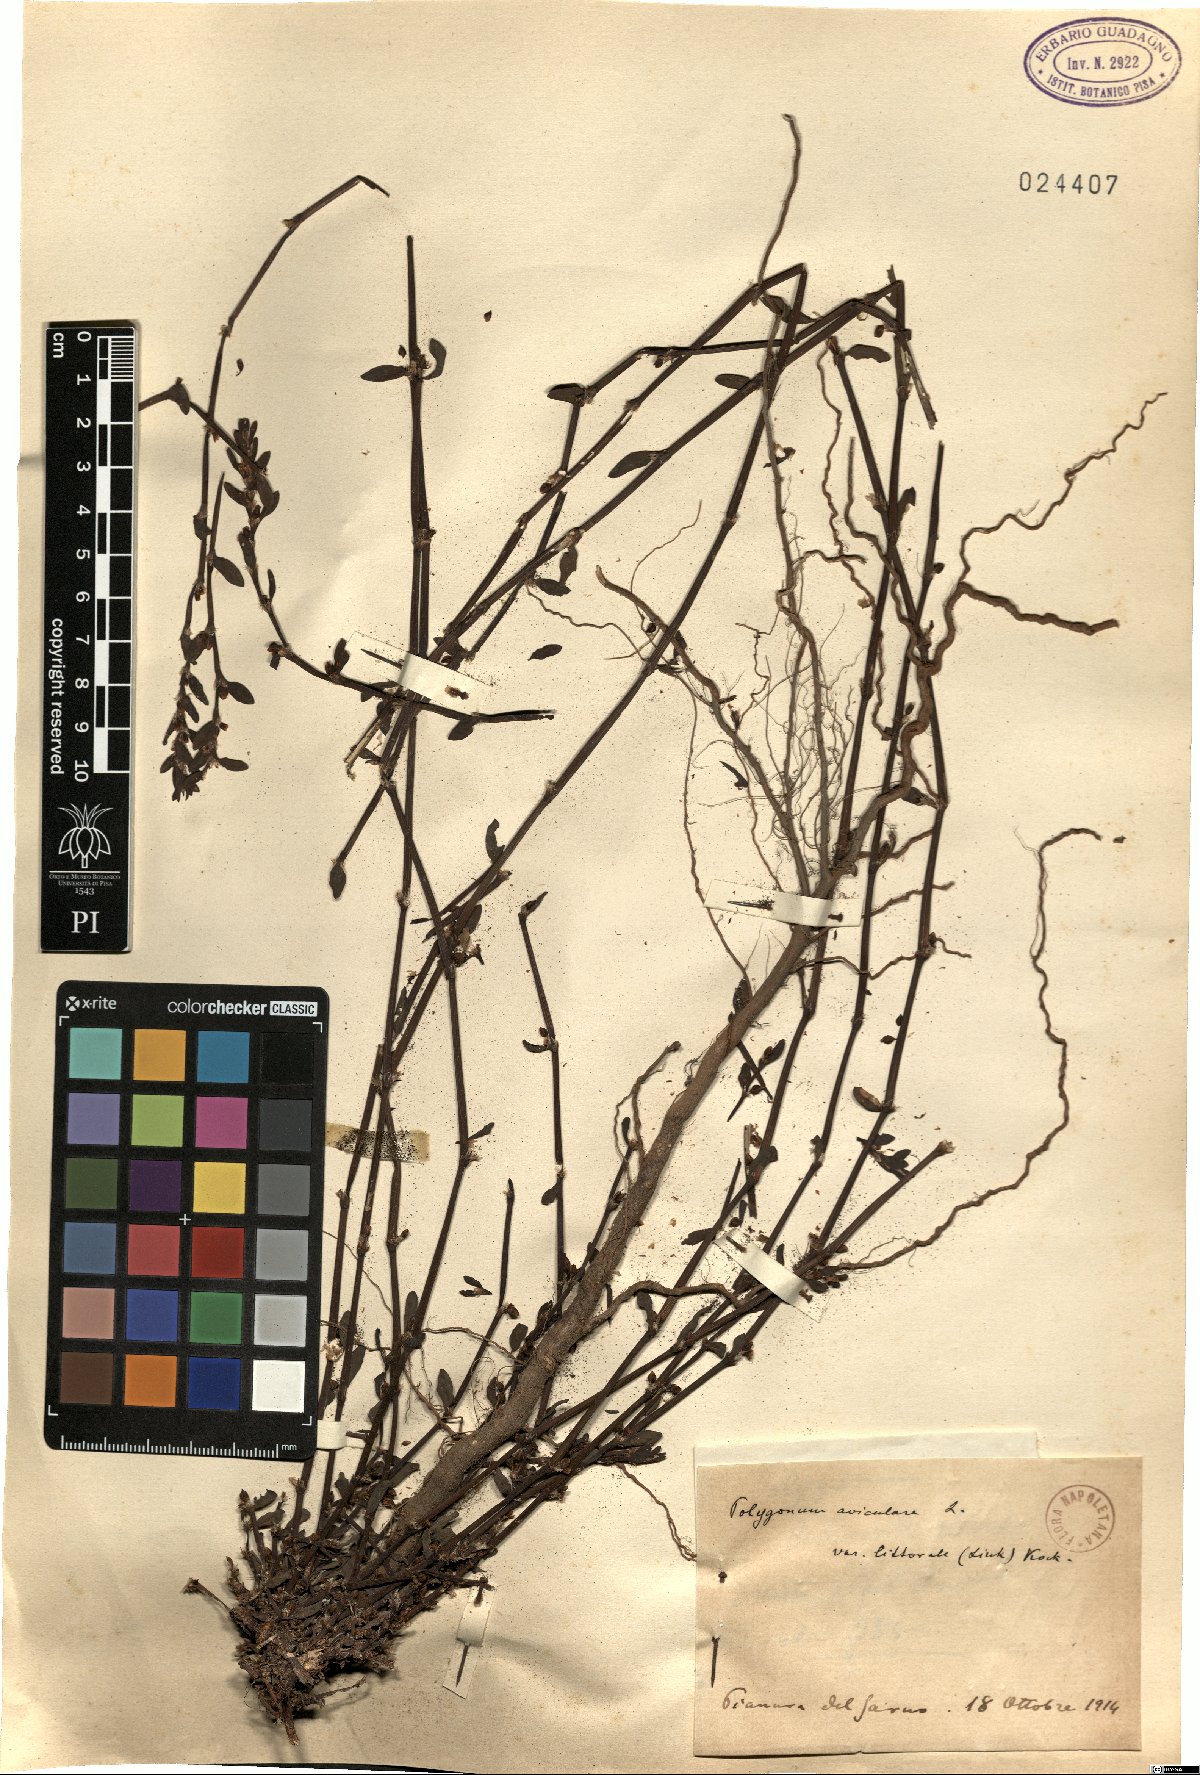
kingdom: Plantae
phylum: Tracheophyta
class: Magnoliopsida
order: Caryophyllales
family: Polygonaceae
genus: Polygonum
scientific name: Polygonum aviculare
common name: Prostrate knotweed
